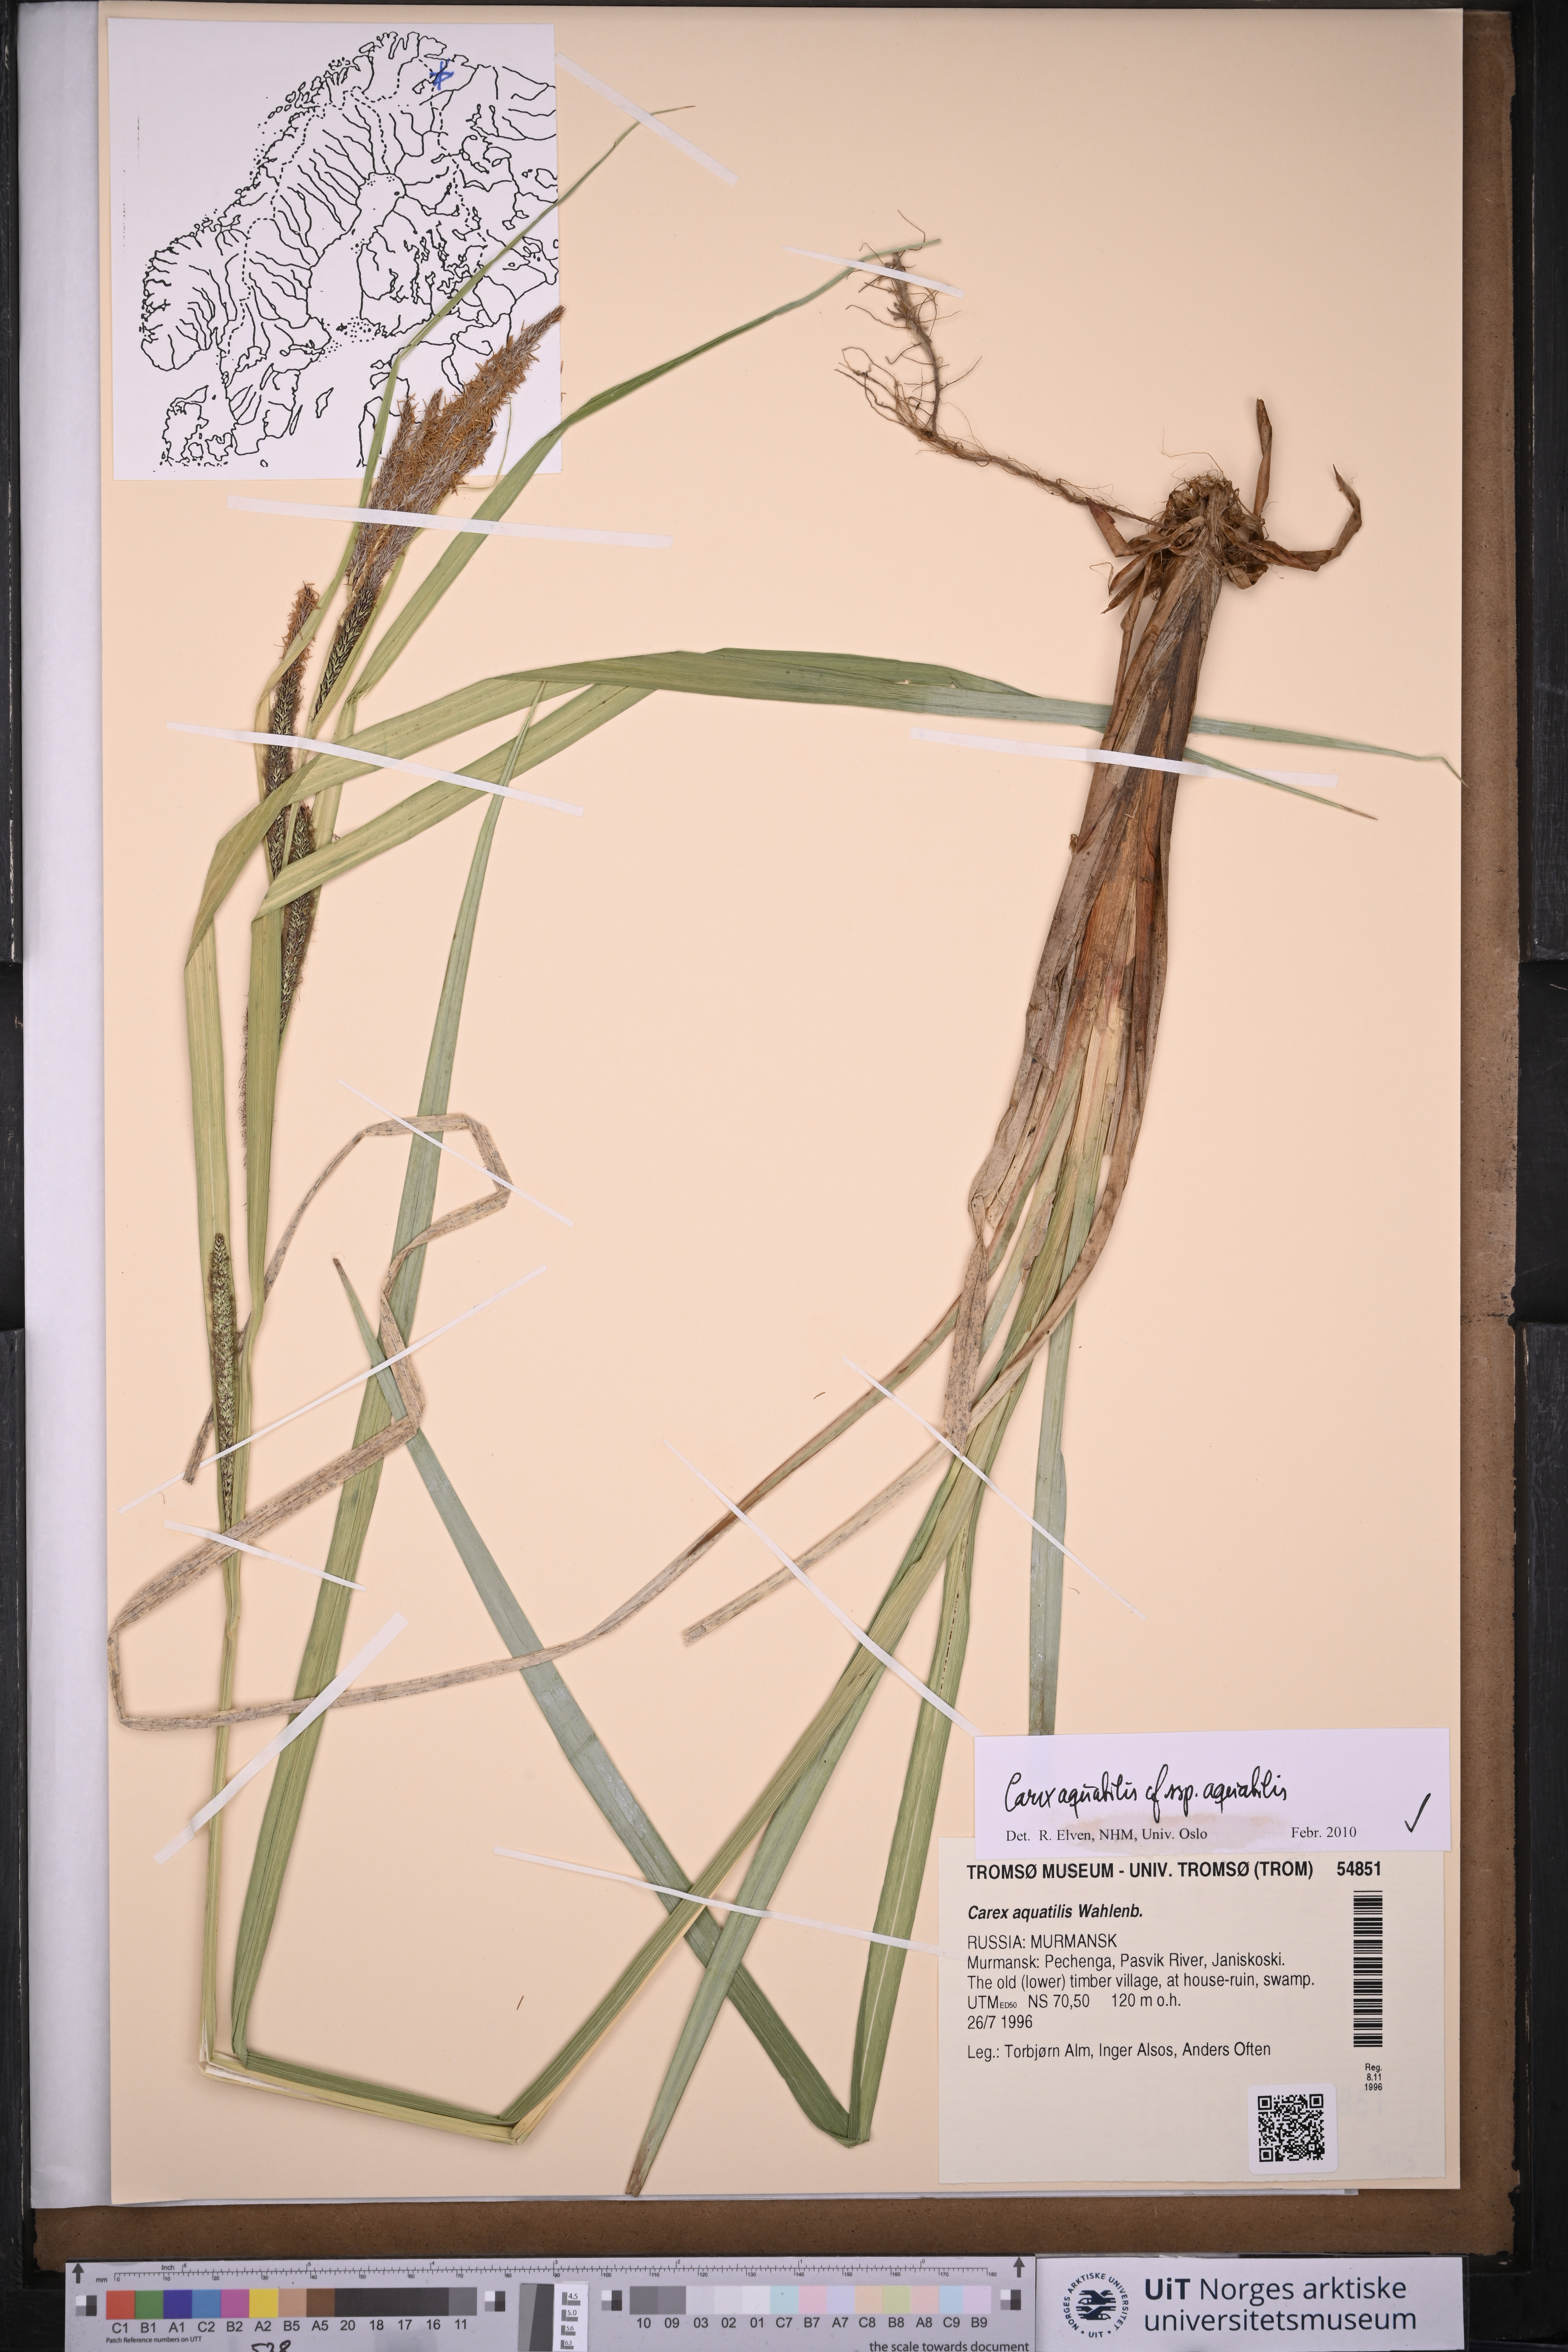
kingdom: Plantae
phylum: Tracheophyta
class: Liliopsida
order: Poales
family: Cyperaceae
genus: Carex
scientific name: Carex aquatilis
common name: Water sedge
